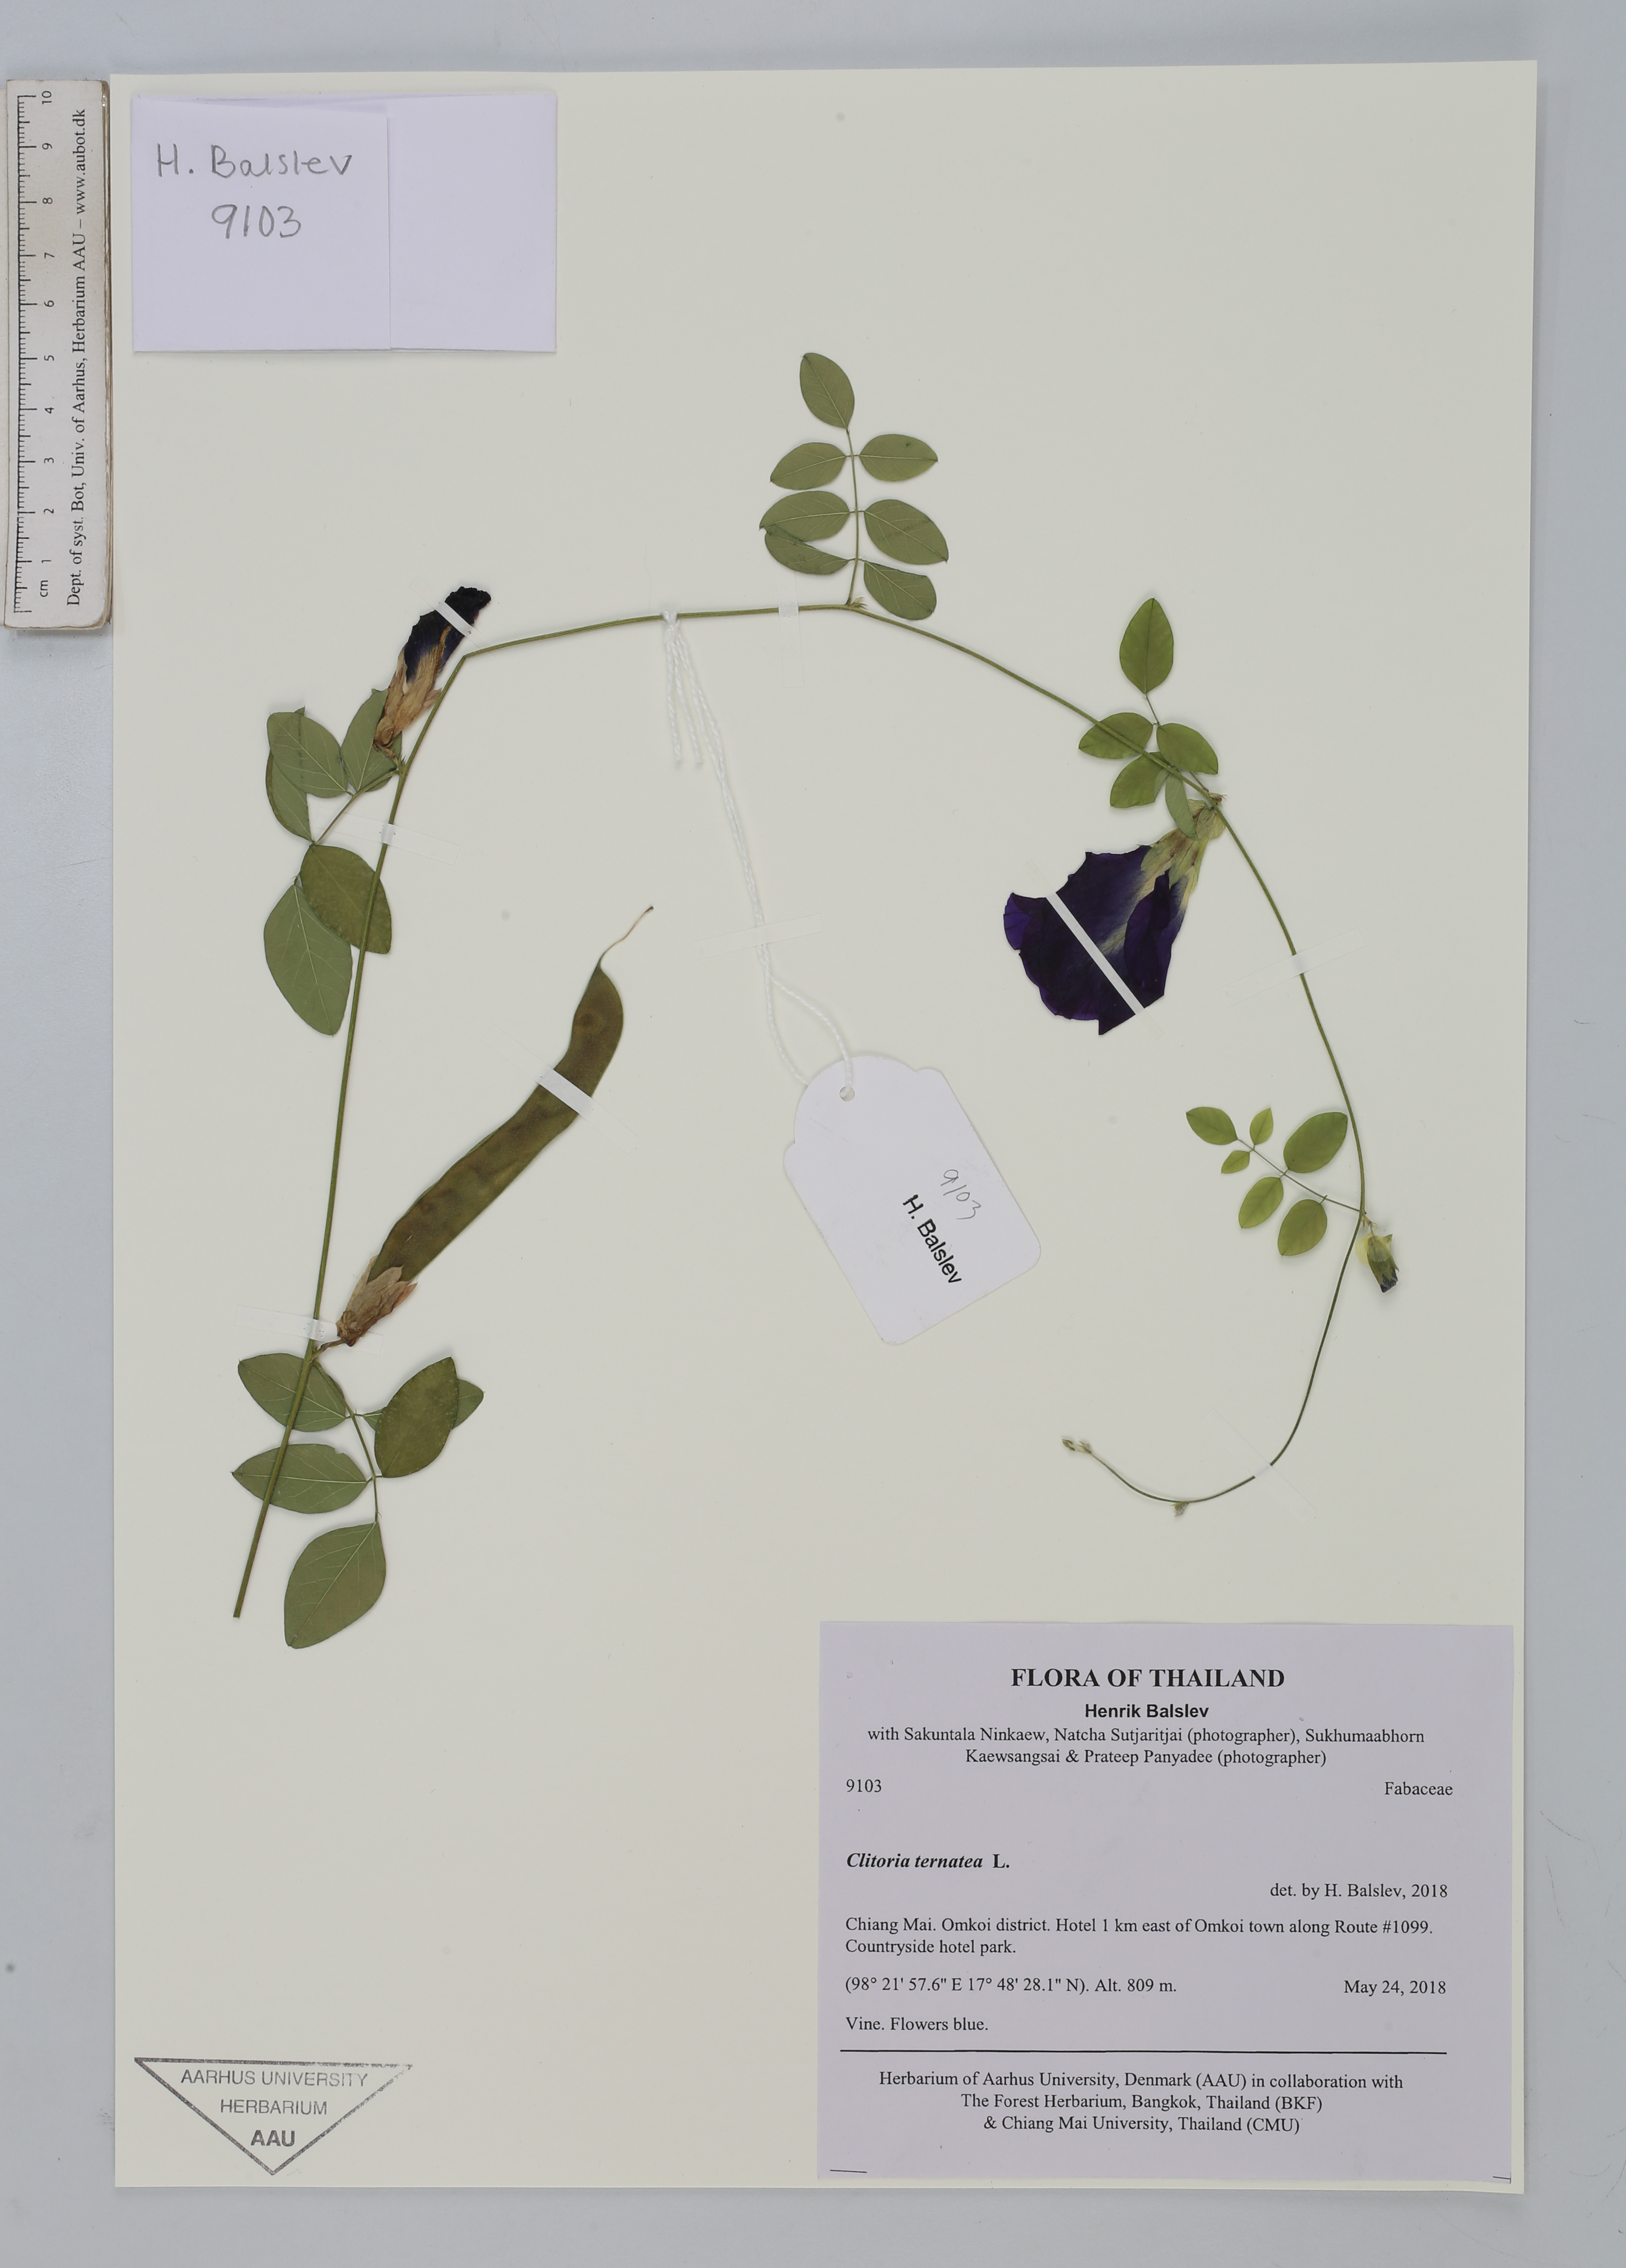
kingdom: Plantae
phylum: Tracheophyta
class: Magnoliopsida
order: Fabales
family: Fabaceae
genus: Clitoria
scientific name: Clitoria ternatea
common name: Asian pigeonwings
